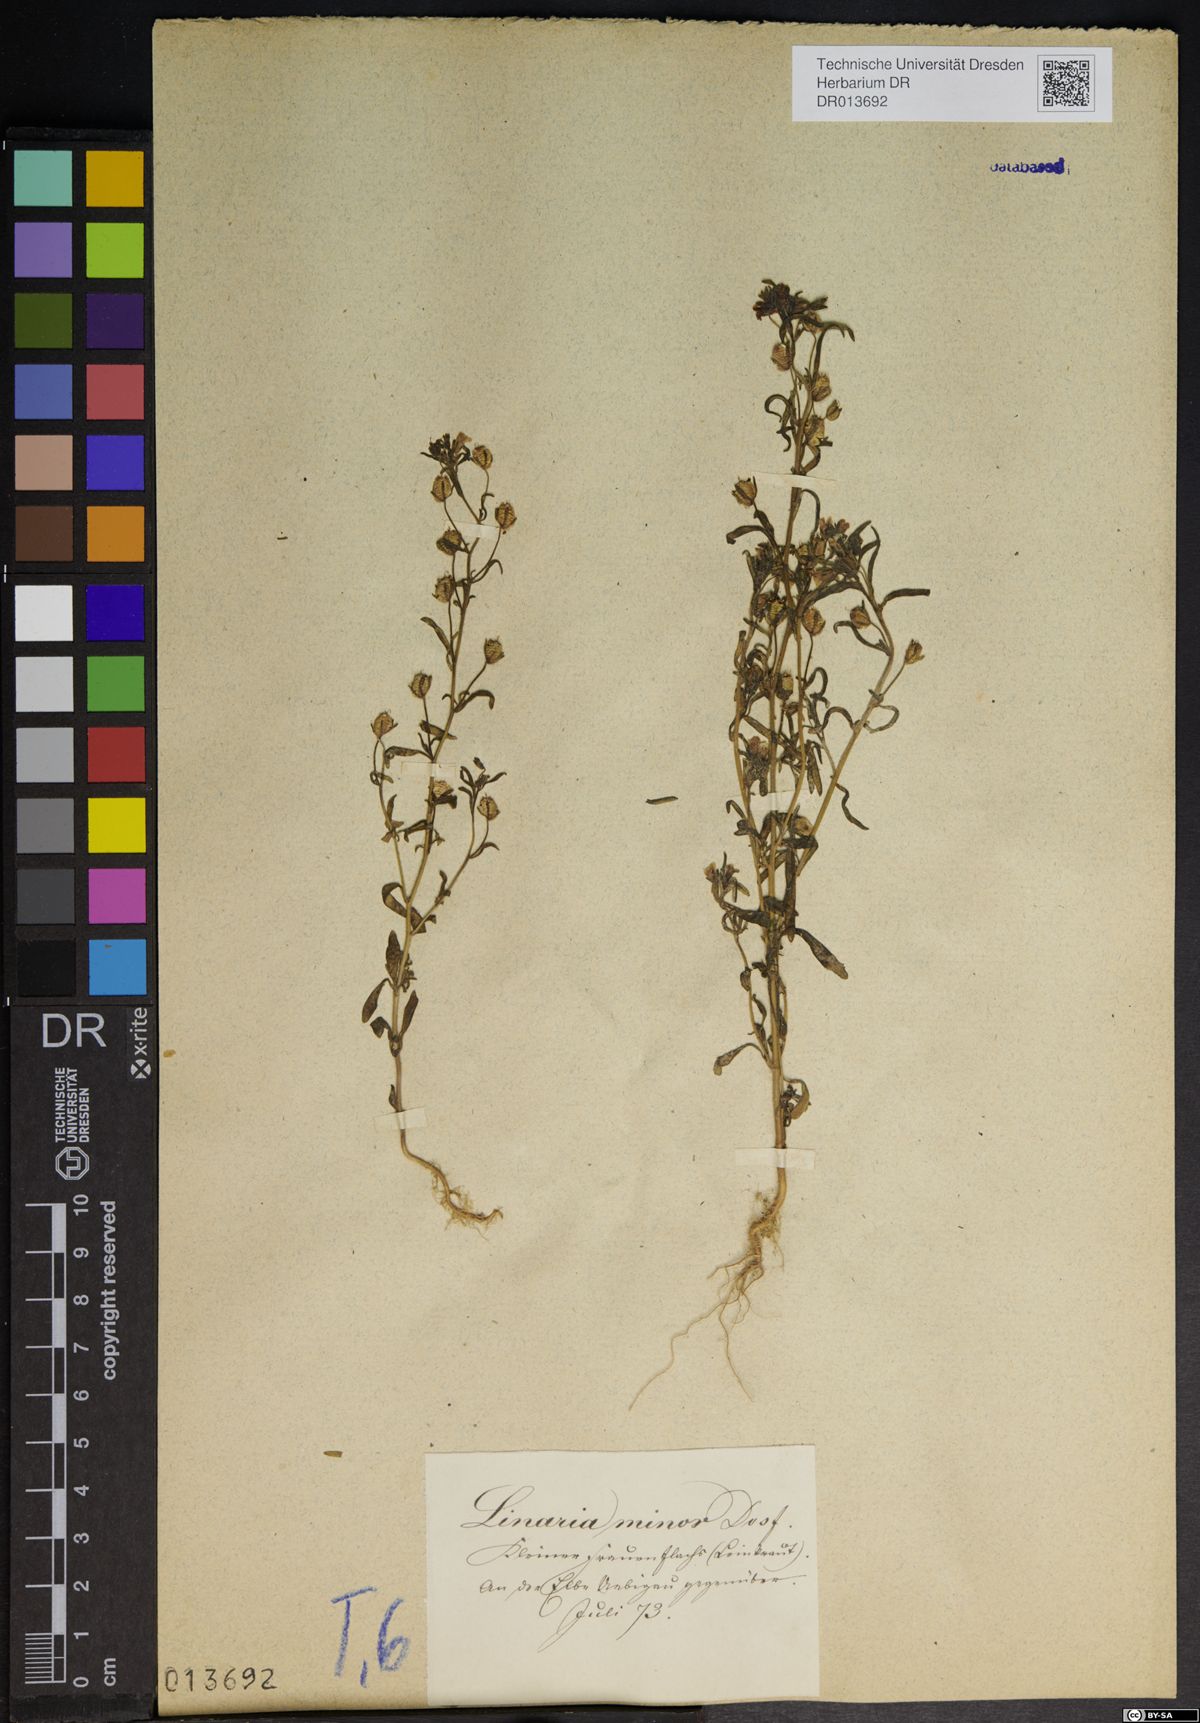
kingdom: Plantae
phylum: Tracheophyta
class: Magnoliopsida
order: Lamiales
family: Plantaginaceae
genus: Chaenorhinum
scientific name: Chaenorhinum minus
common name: Dwarf snapdragon
